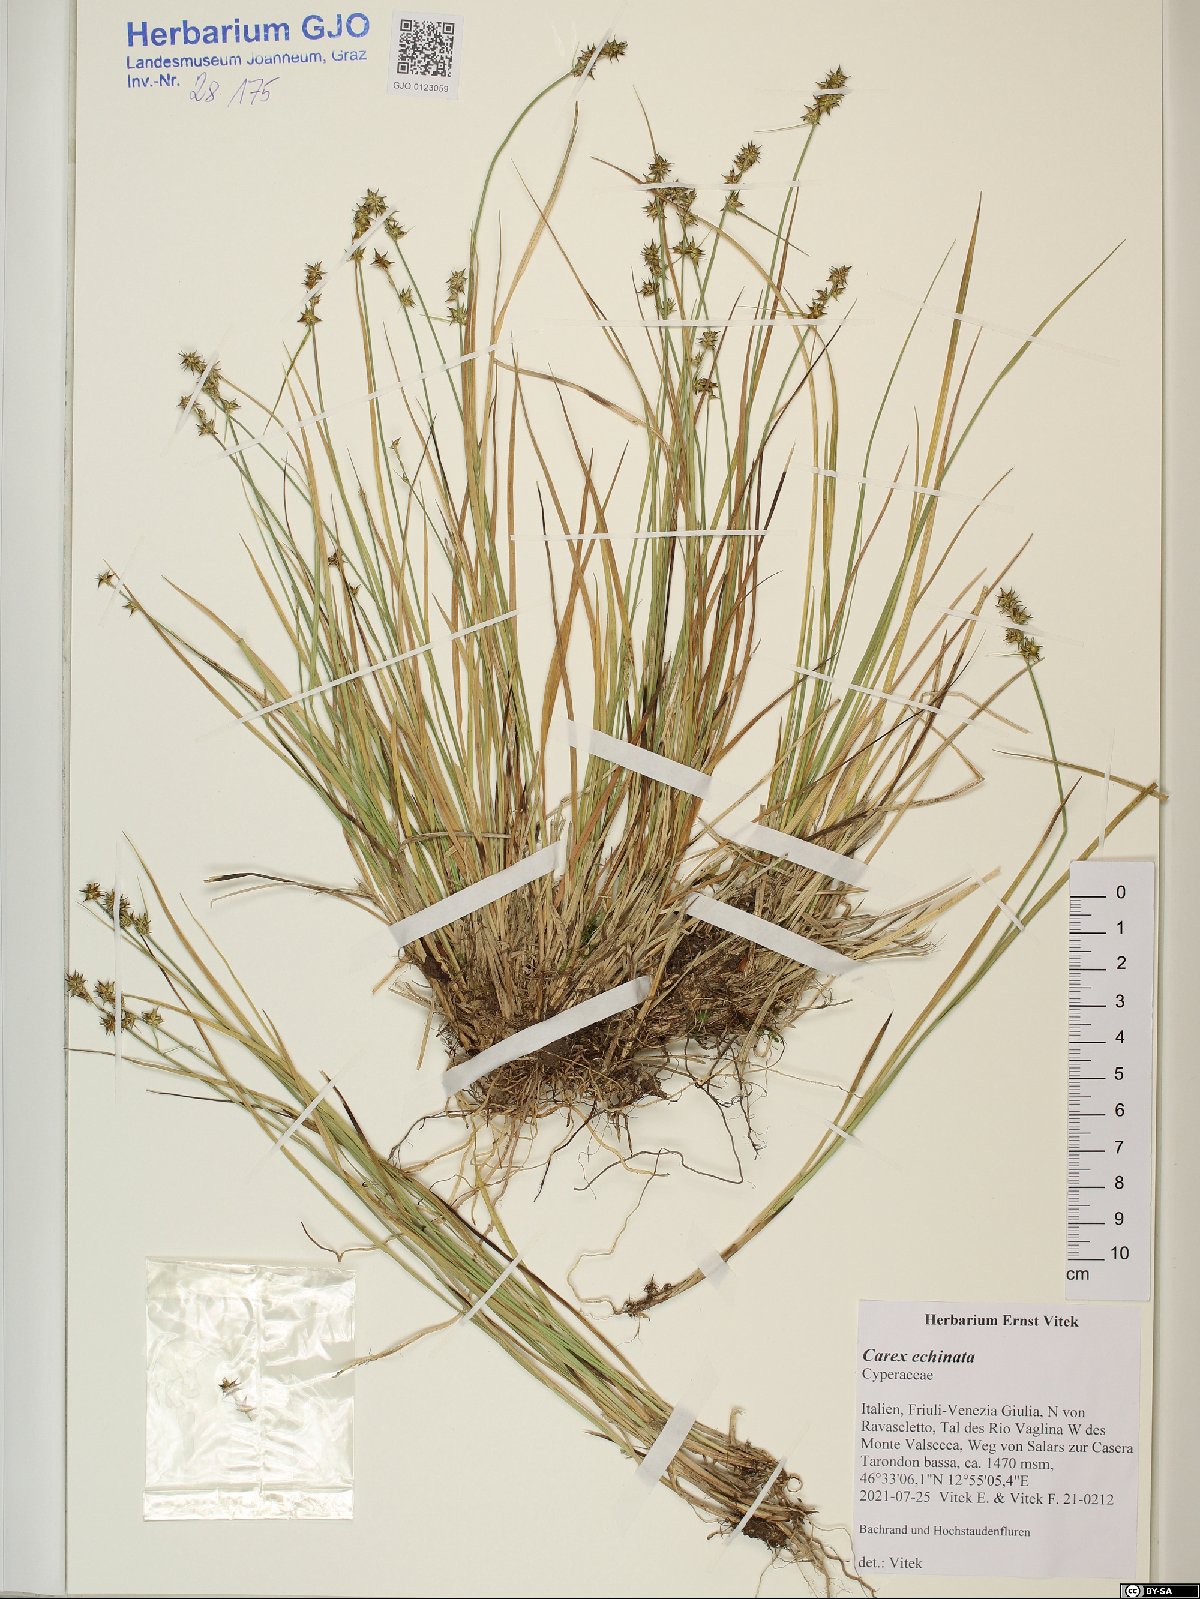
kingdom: Plantae
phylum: Tracheophyta
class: Liliopsida
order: Poales
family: Cyperaceae
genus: Carex
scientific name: Carex echinata
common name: Star sedge
